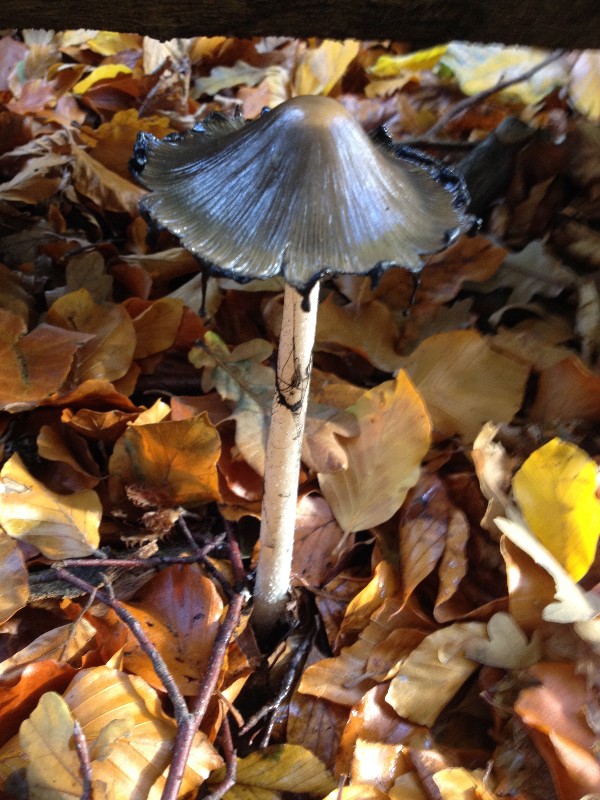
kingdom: Fungi
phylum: Basidiomycota
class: Agaricomycetes
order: Agaricales
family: Agaricaceae
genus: Coprinus
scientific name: Coprinus comatus
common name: stor parykhat
